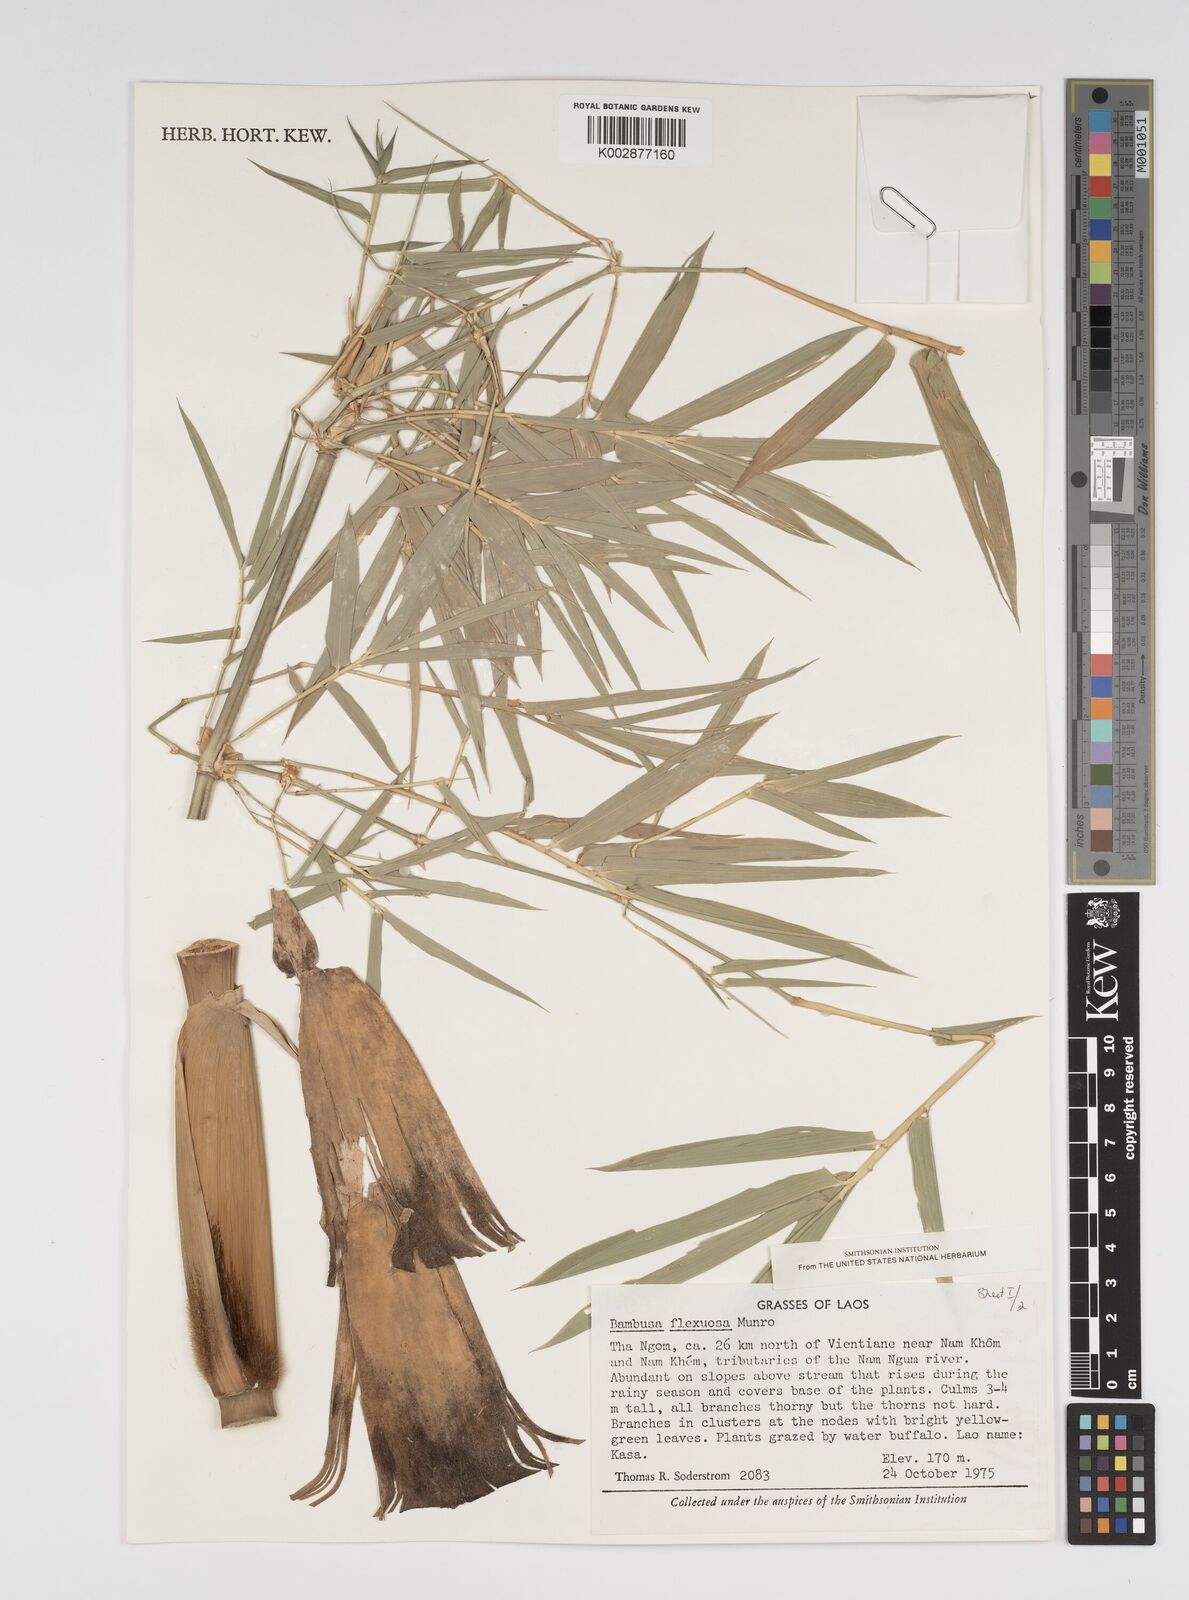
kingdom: Plantae
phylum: Tracheophyta
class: Liliopsida
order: Poales
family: Poaceae
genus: Bambusa
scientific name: Bambusa flexuosa
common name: Lesser thorny bamboo
